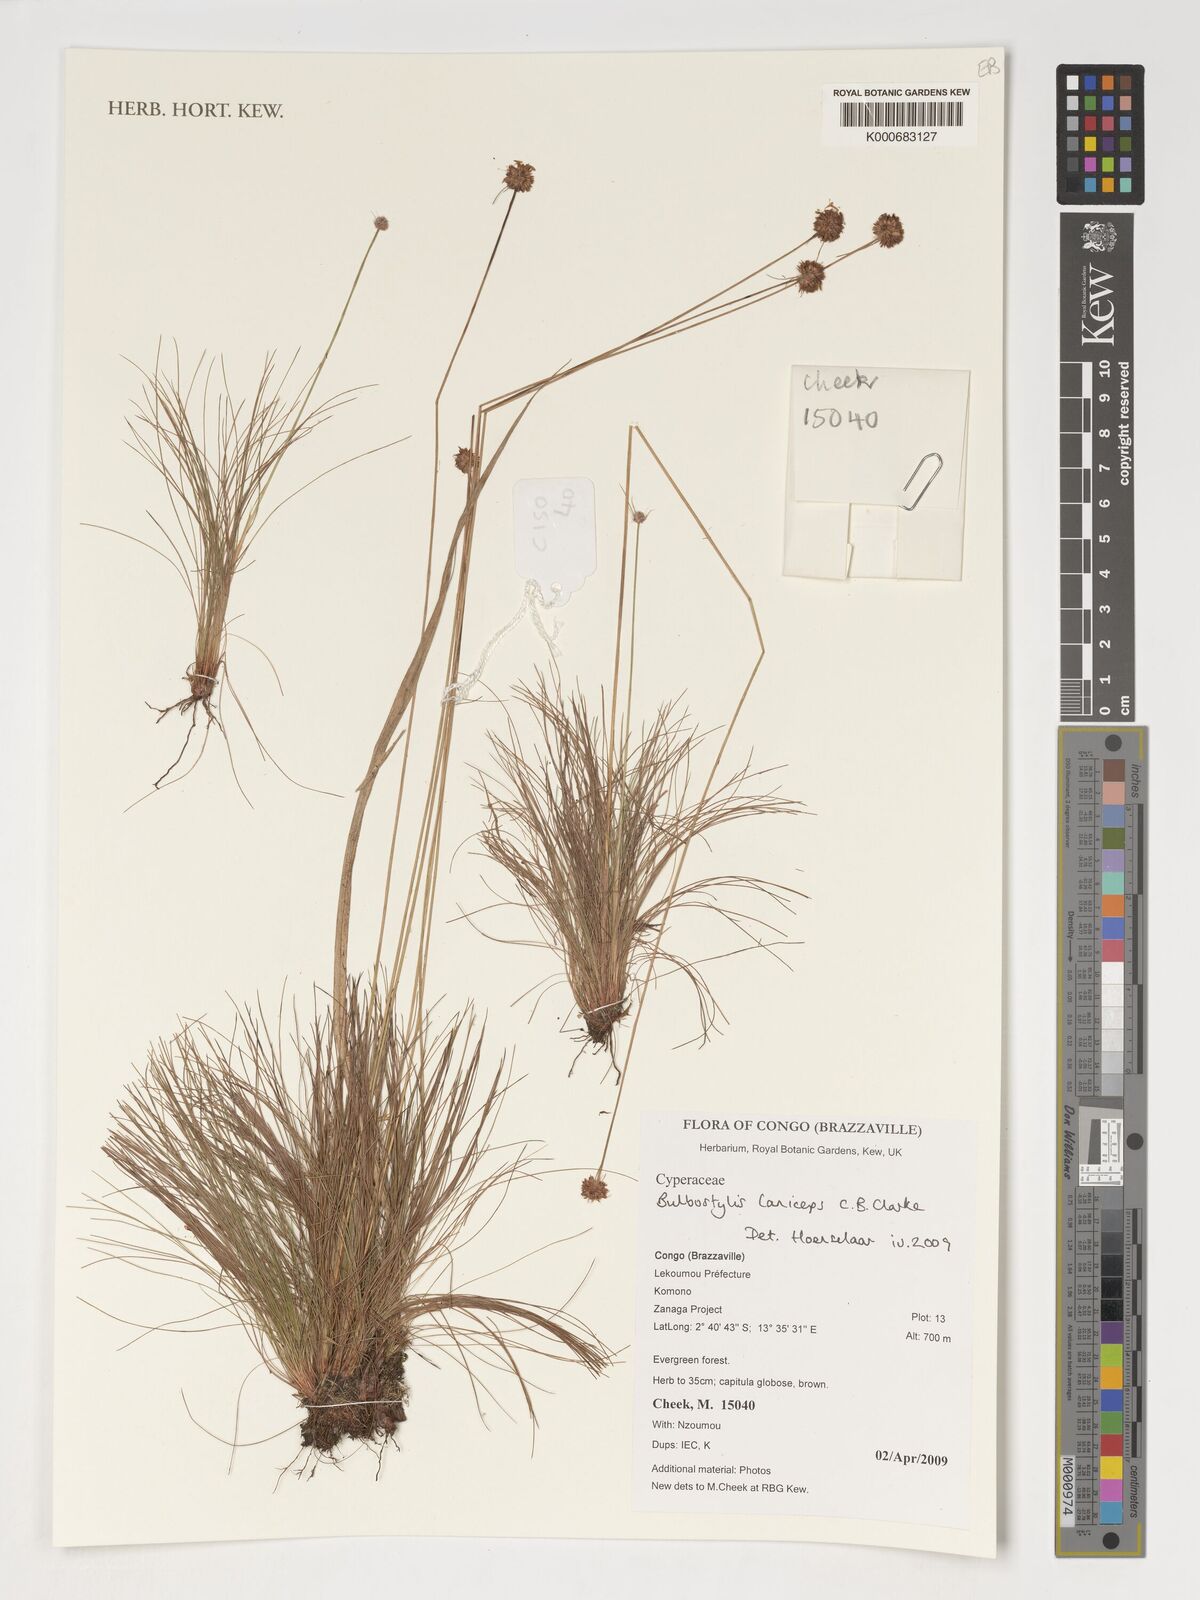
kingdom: Plantae
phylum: Tracheophyta
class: Liliopsida
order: Poales
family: Cyperaceae
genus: Bulbostylis
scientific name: Bulbostylis laniceps
